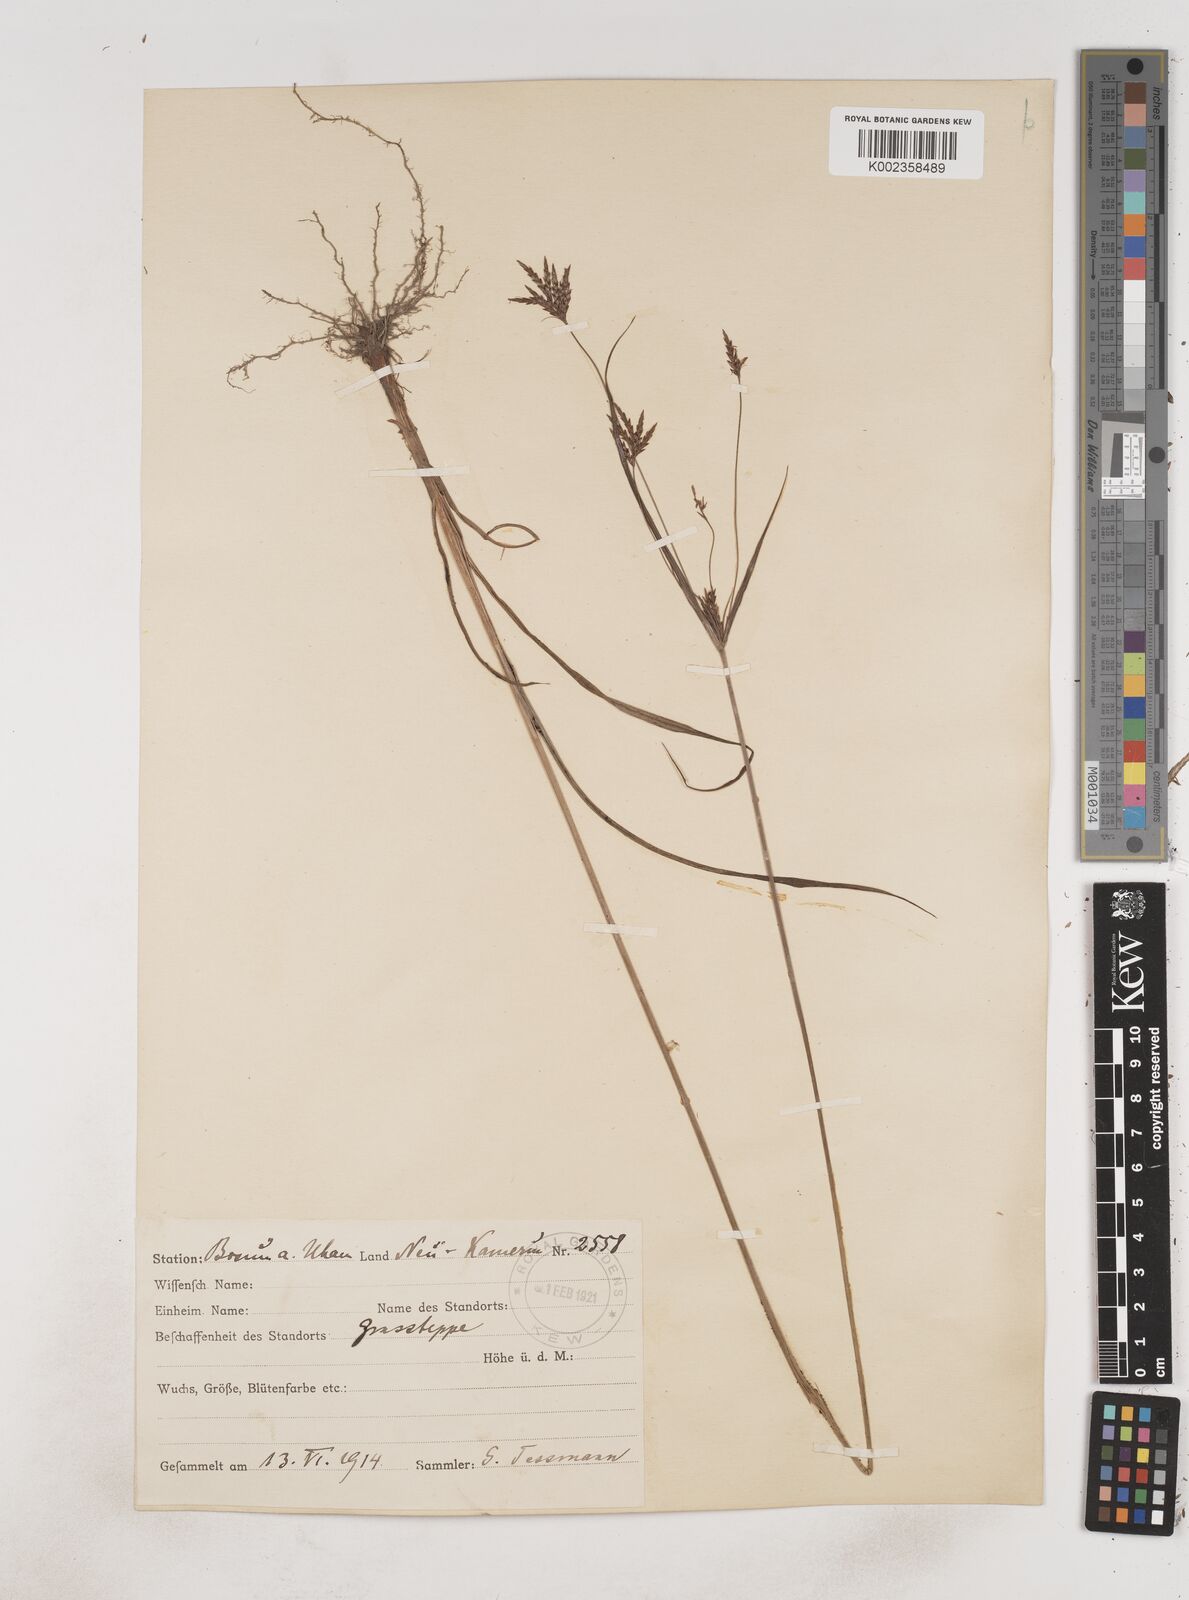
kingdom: Plantae
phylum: Tracheophyta
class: Liliopsida
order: Poales
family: Cyperaceae
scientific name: Cyperaceae
